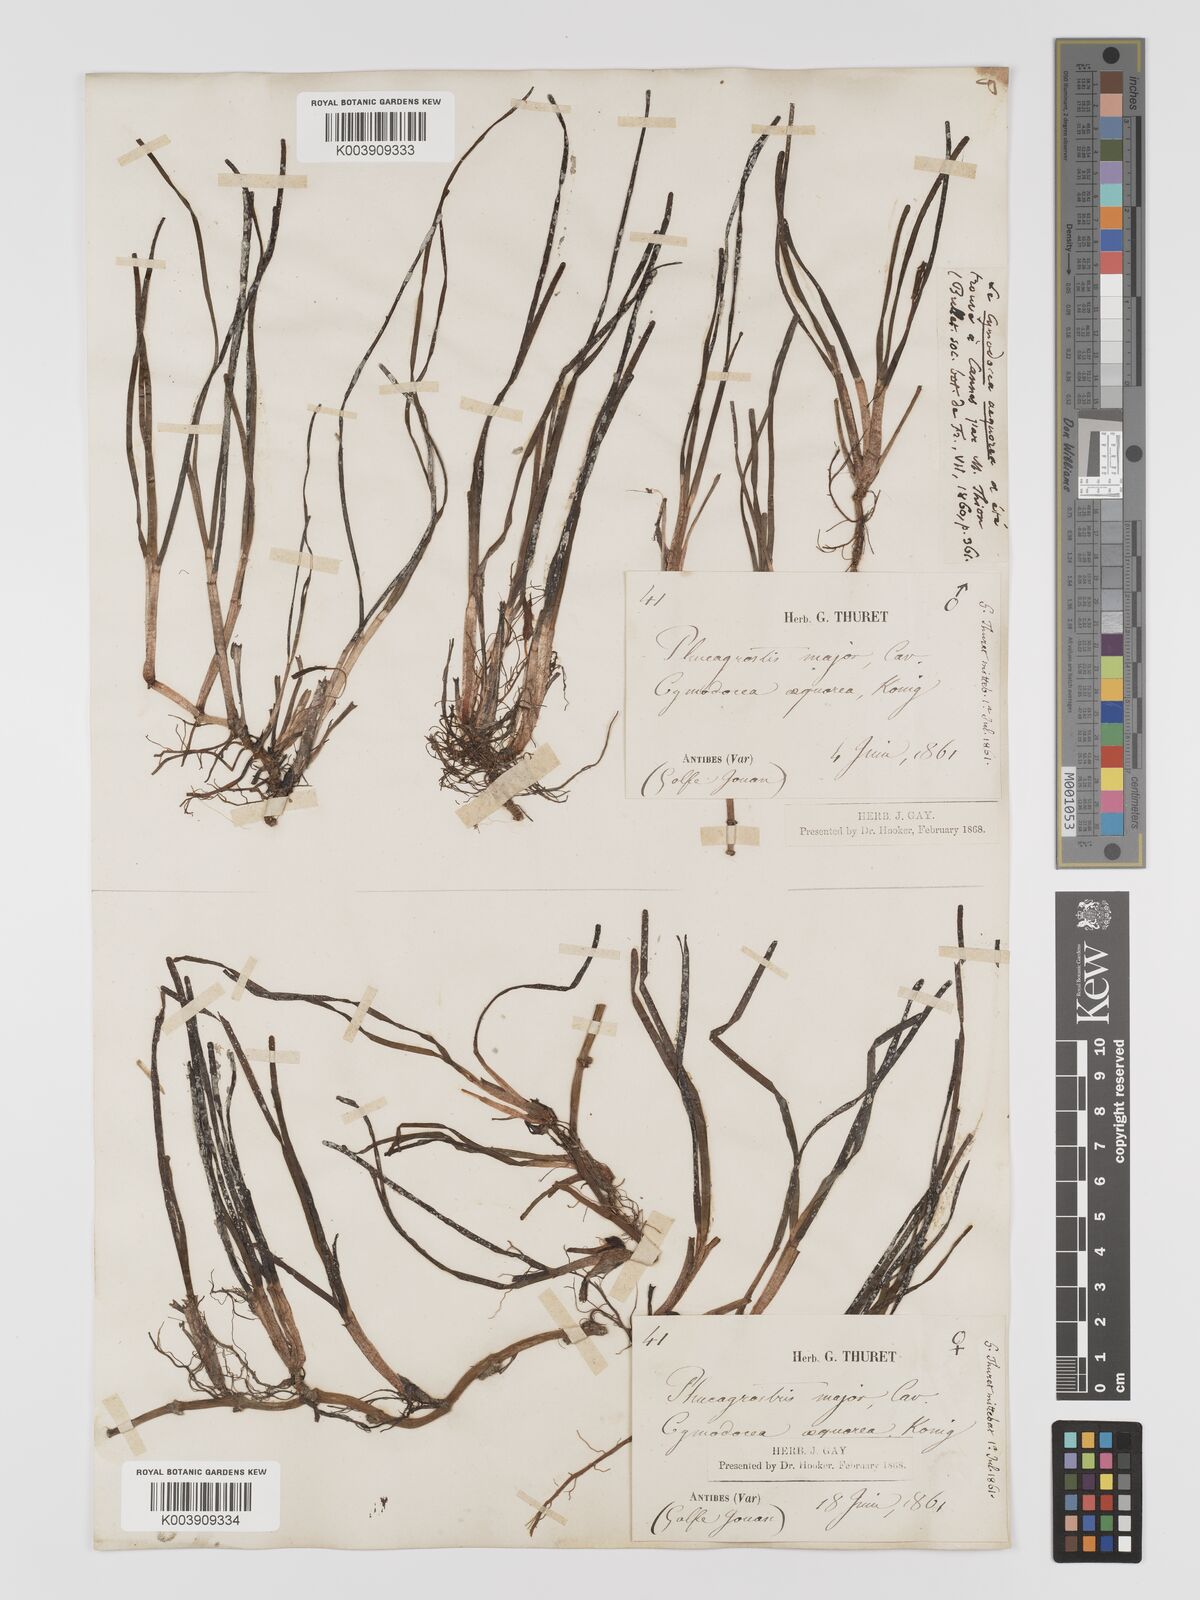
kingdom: Plantae
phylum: Tracheophyta
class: Liliopsida
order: Alismatales
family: Cymodoceaceae
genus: Cymodocea
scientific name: Cymodocea nodosa
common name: Slender seagrass
